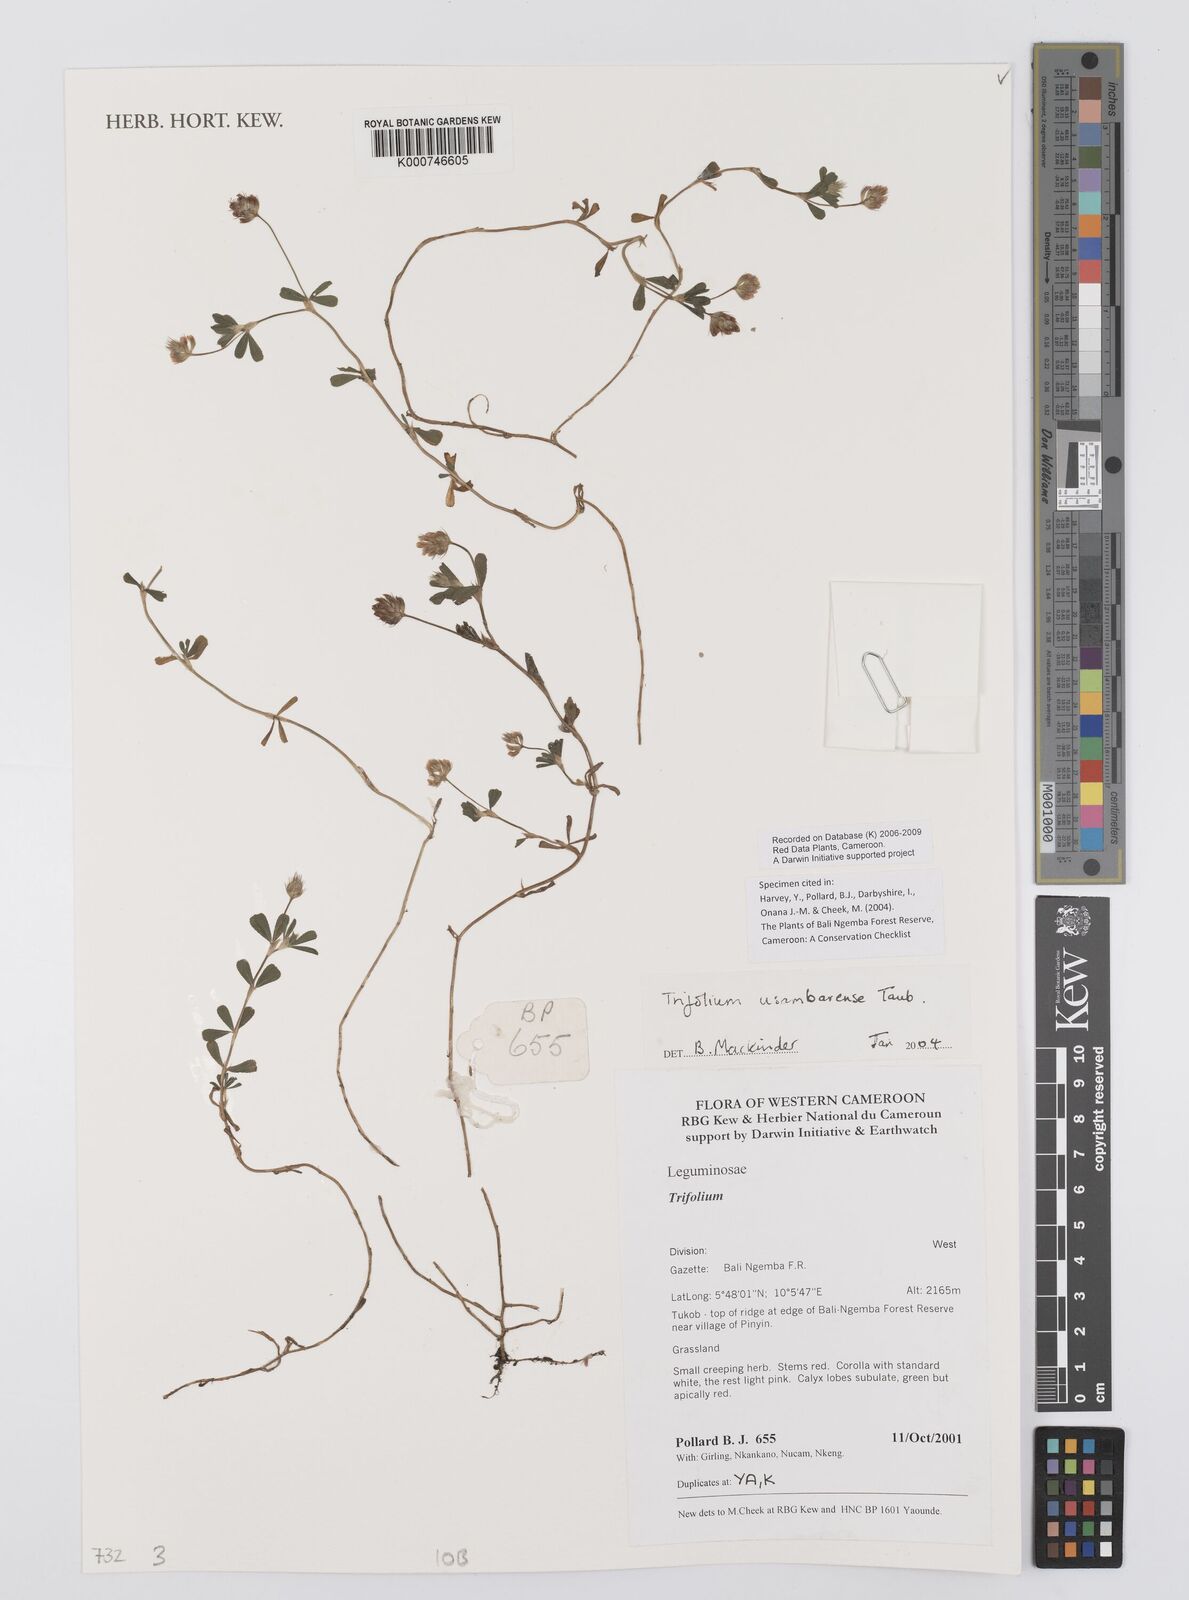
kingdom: Plantae
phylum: Tracheophyta
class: Magnoliopsida
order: Fabales
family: Fabaceae
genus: Trifolium
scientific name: Trifolium usambarense
